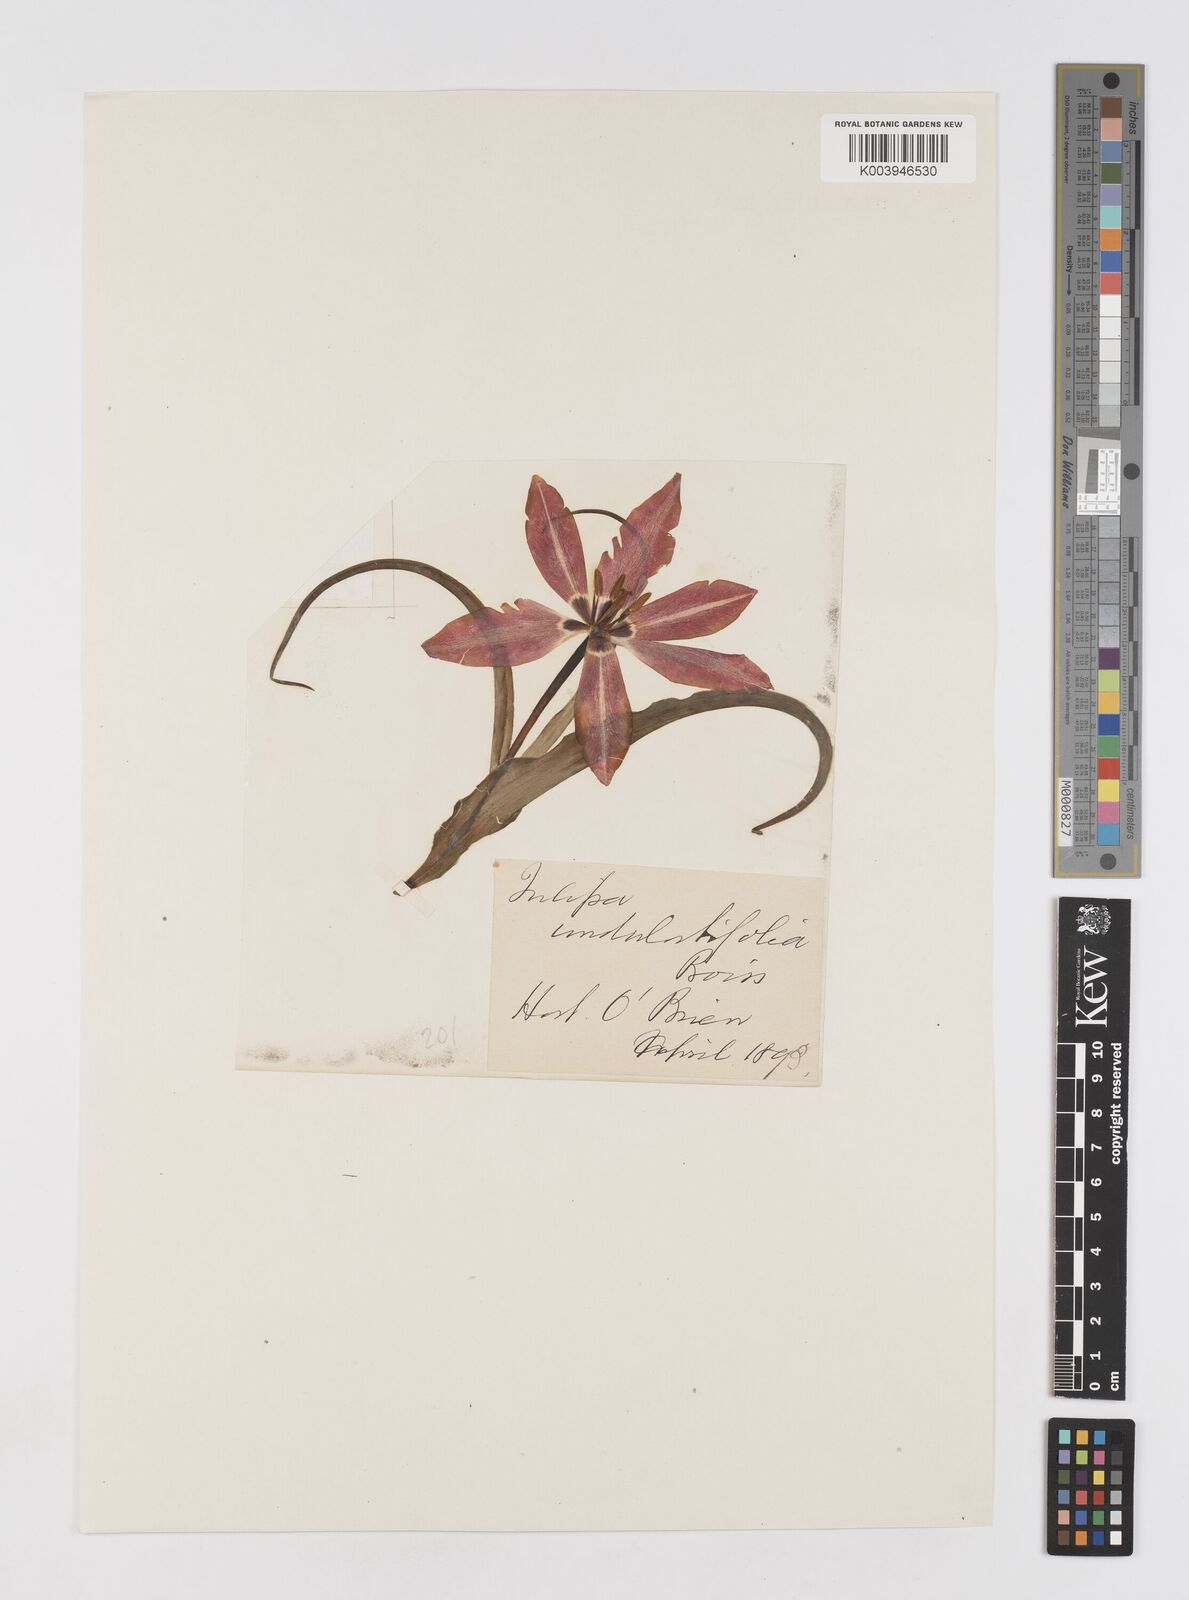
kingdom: Plantae
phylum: Tracheophyta
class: Liliopsida
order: Liliales
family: Liliaceae
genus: Tulipa
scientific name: Tulipa
